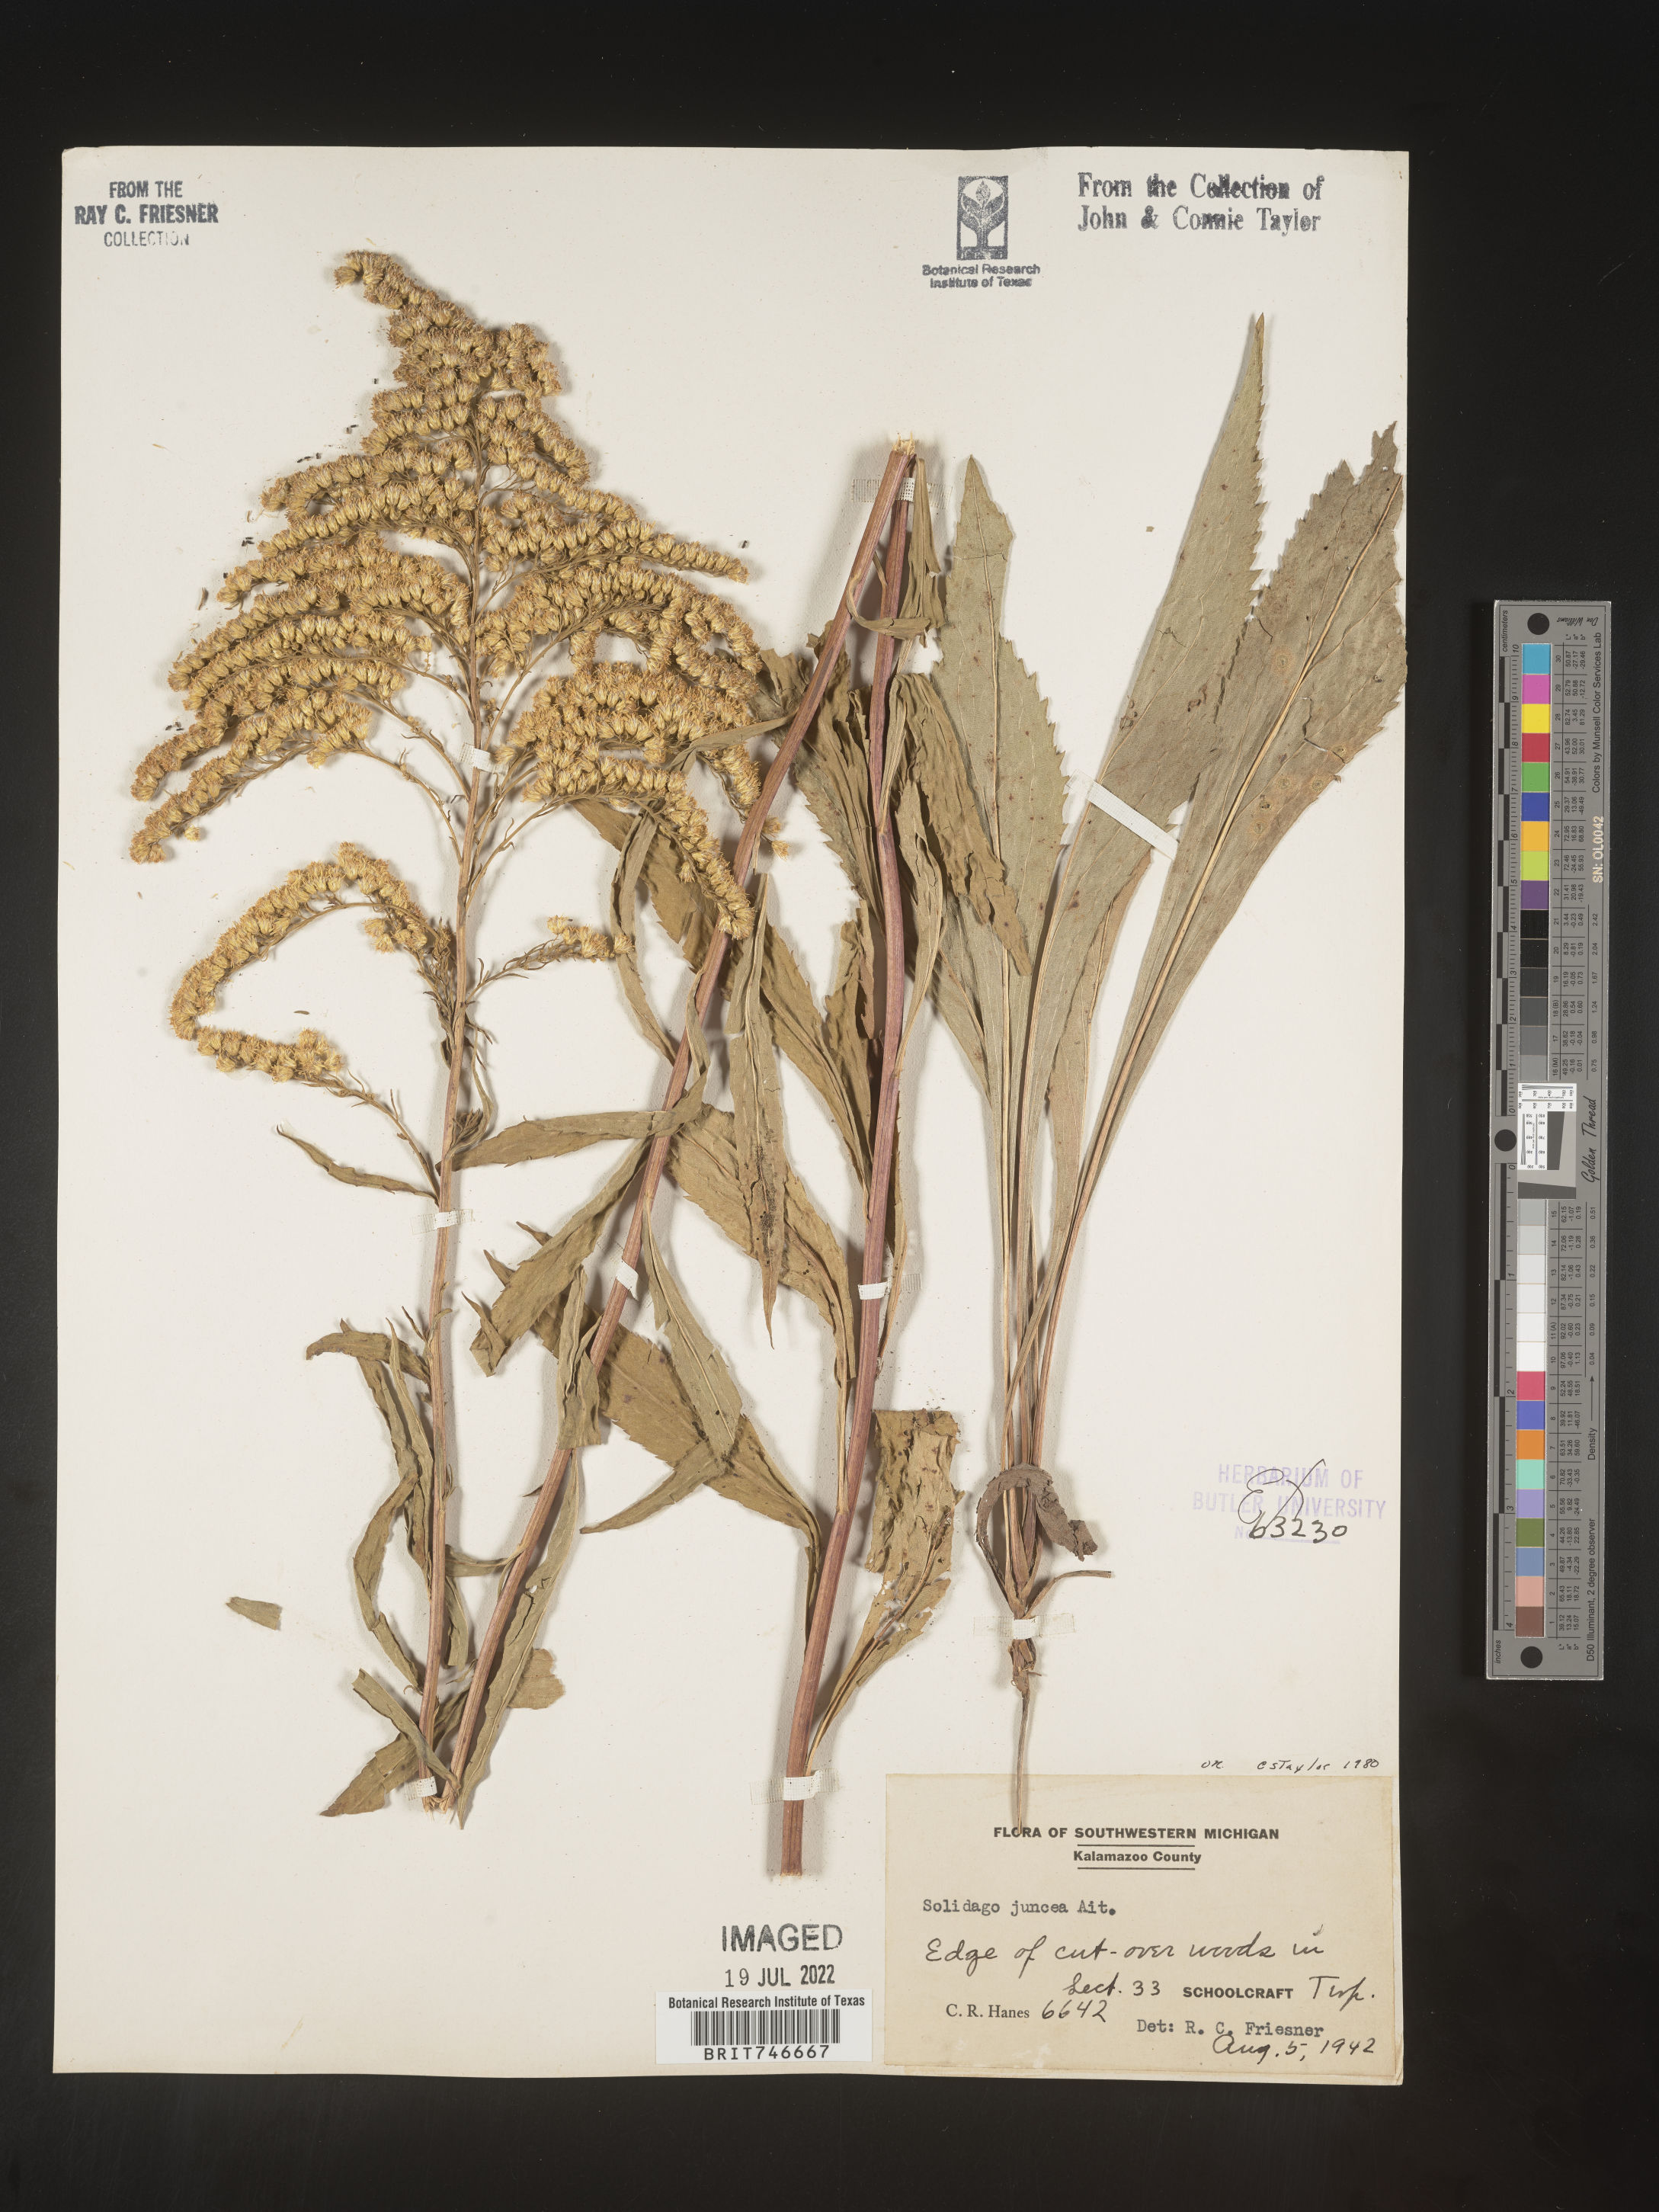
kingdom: Plantae
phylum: Tracheophyta
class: Magnoliopsida
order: Asterales
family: Asteraceae
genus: Solidago
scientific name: Solidago juncea
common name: Early goldenrod
